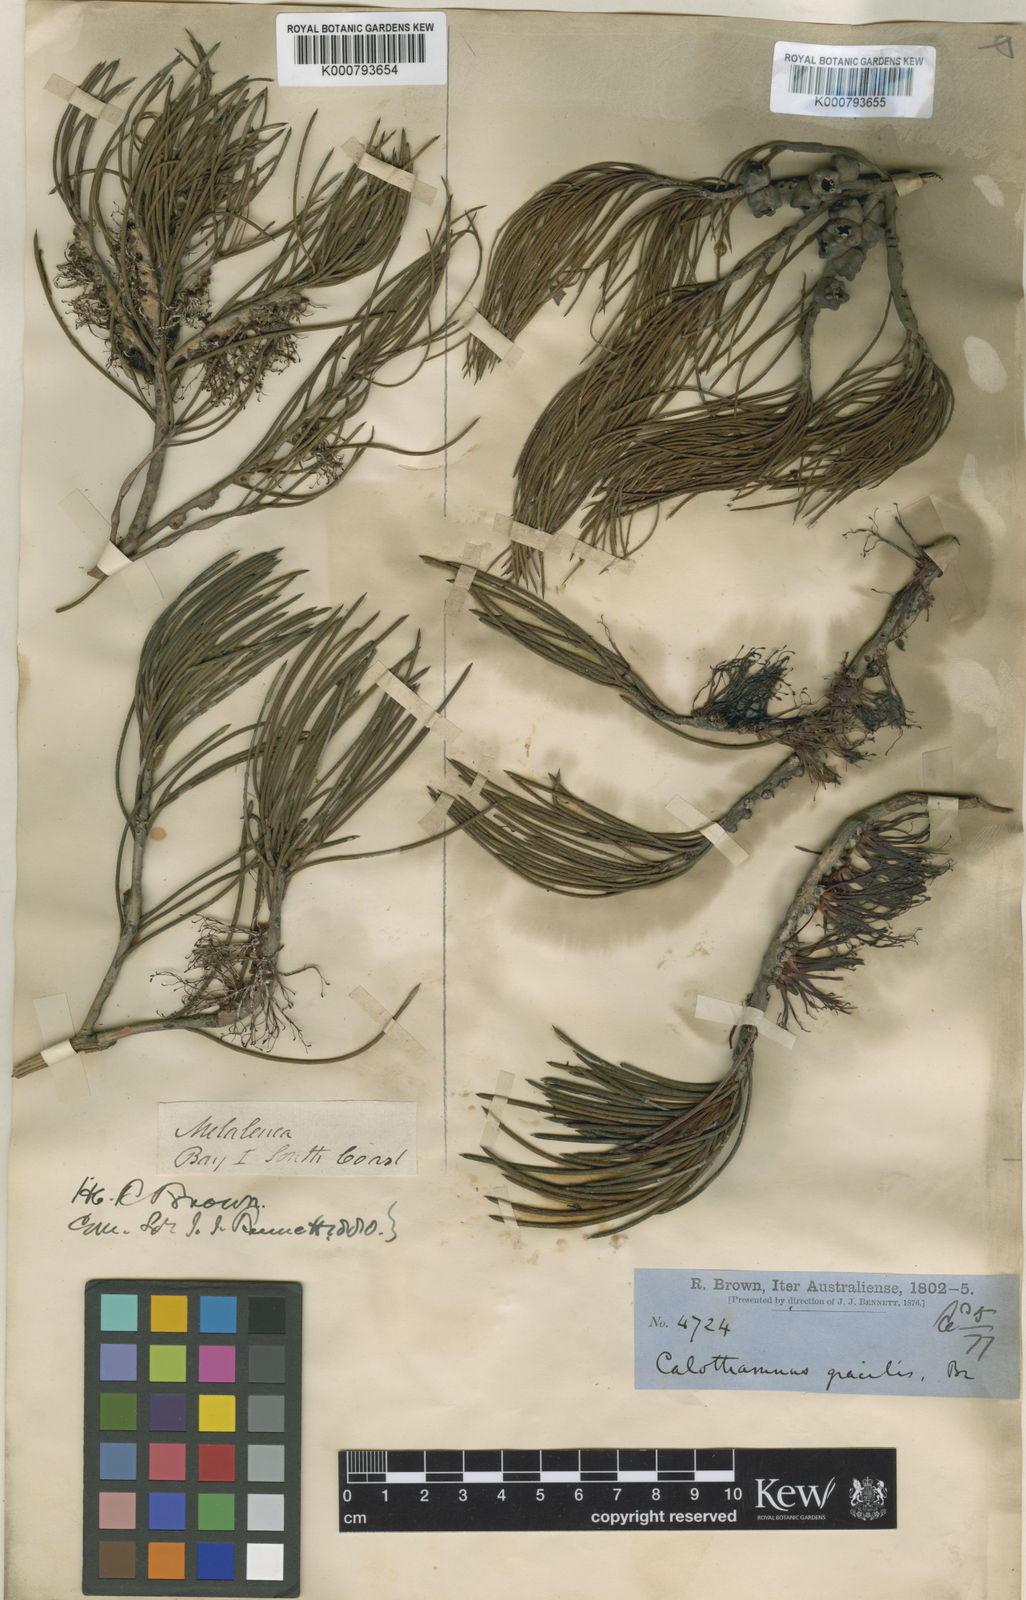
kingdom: Plantae
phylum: Tracheophyta
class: Magnoliopsida
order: Myrtales
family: Myrtaceae
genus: Melaleuca
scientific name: Melaleuca
